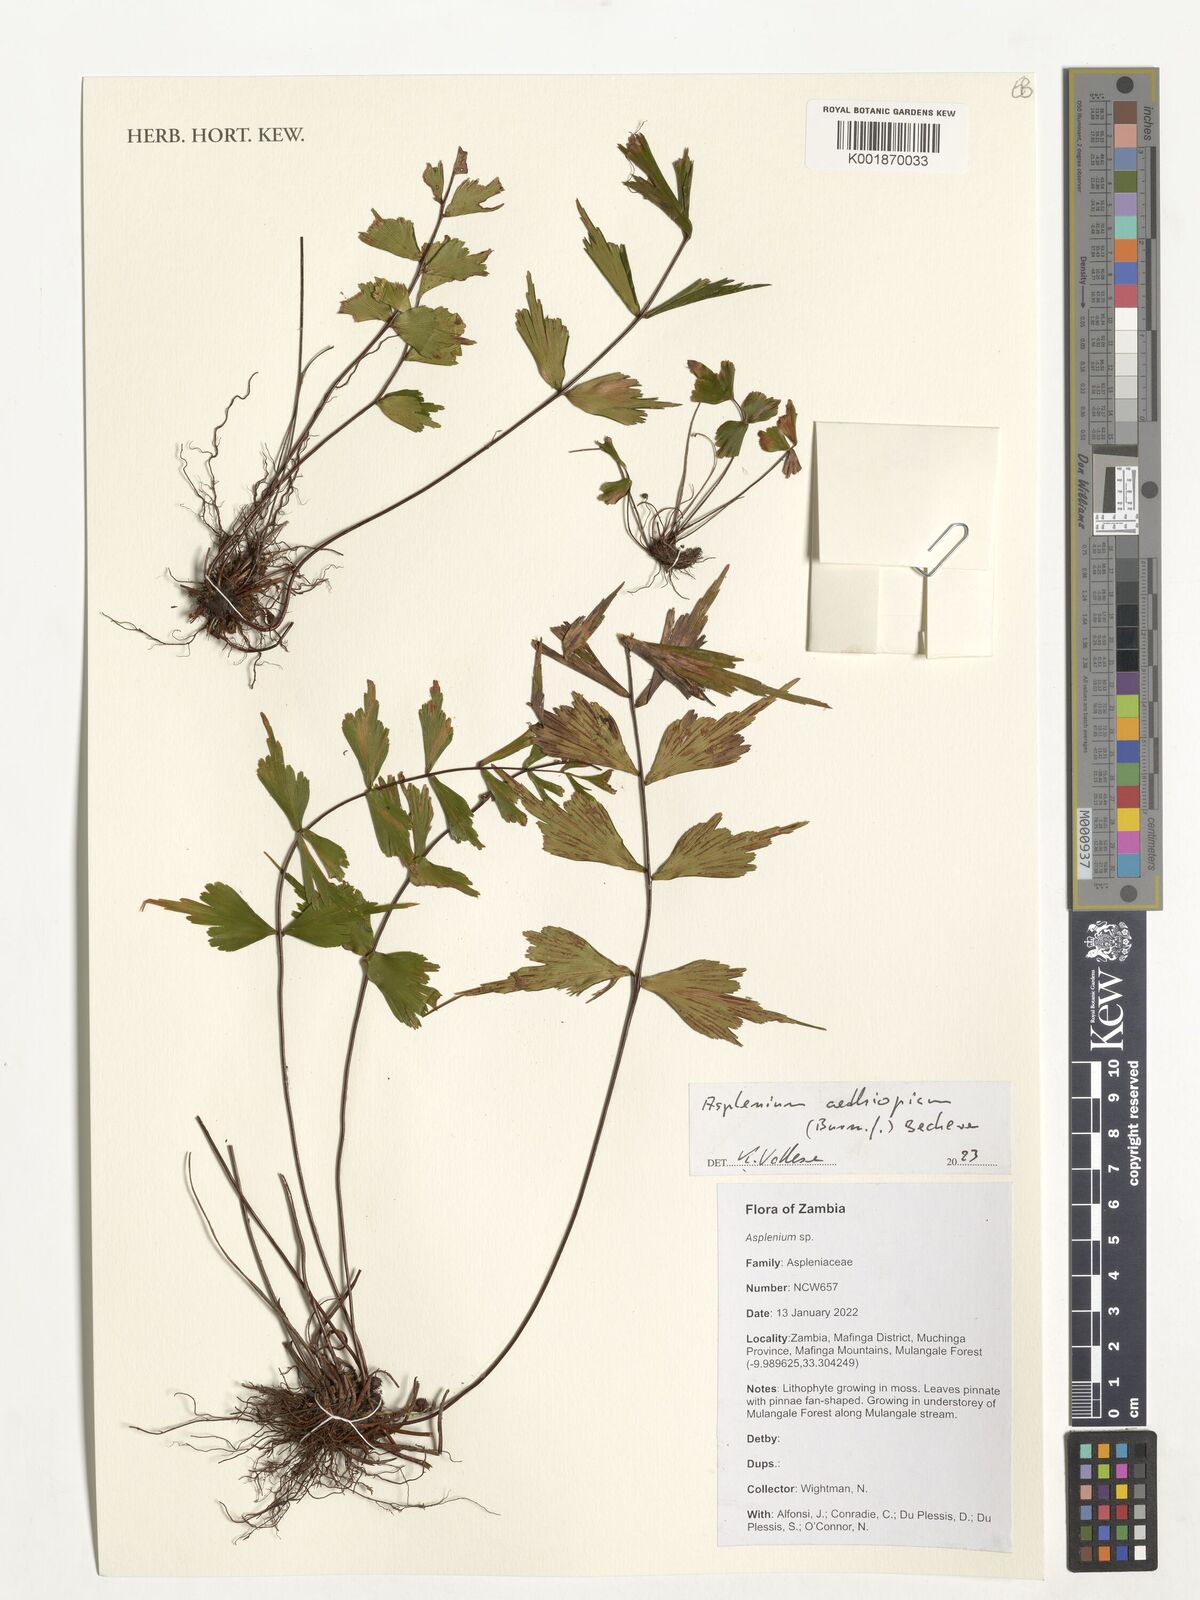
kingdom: Plantae
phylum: Tracheophyta
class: Polypodiopsida
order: Polypodiales
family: Aspleniaceae
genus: Asplenium
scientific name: Asplenium
